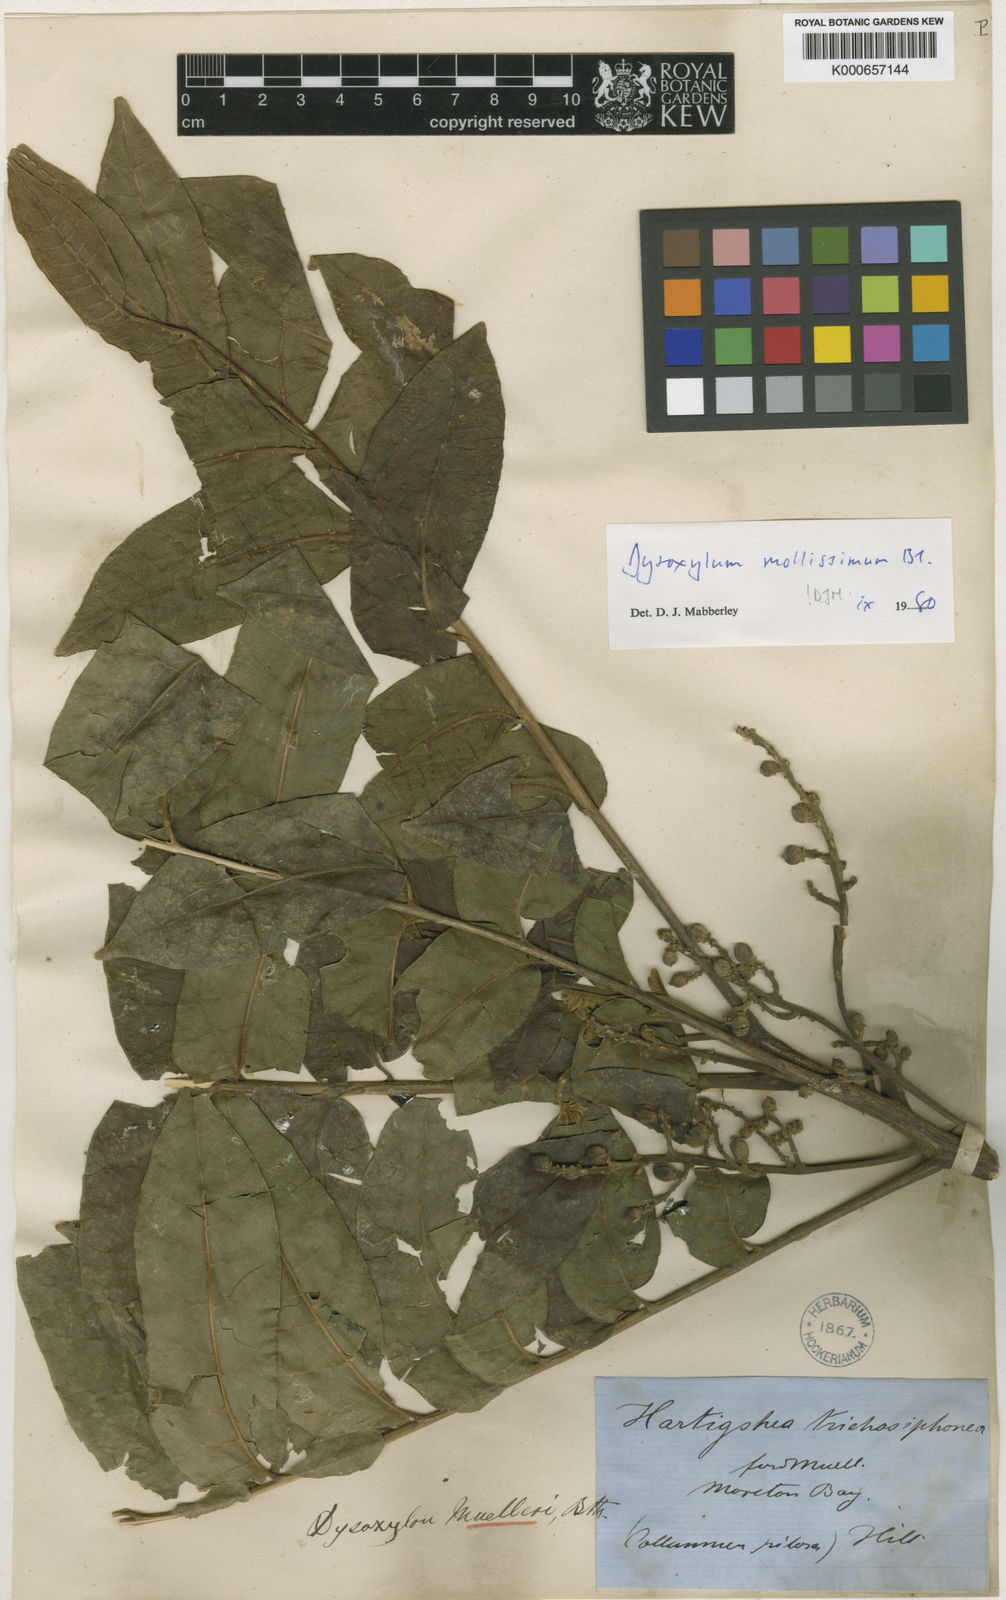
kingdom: Plantae
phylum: Tracheophyta
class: Magnoliopsida
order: Sapindales
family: Meliaceae
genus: Dysoxylum
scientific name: Dysoxylum mollissimum
